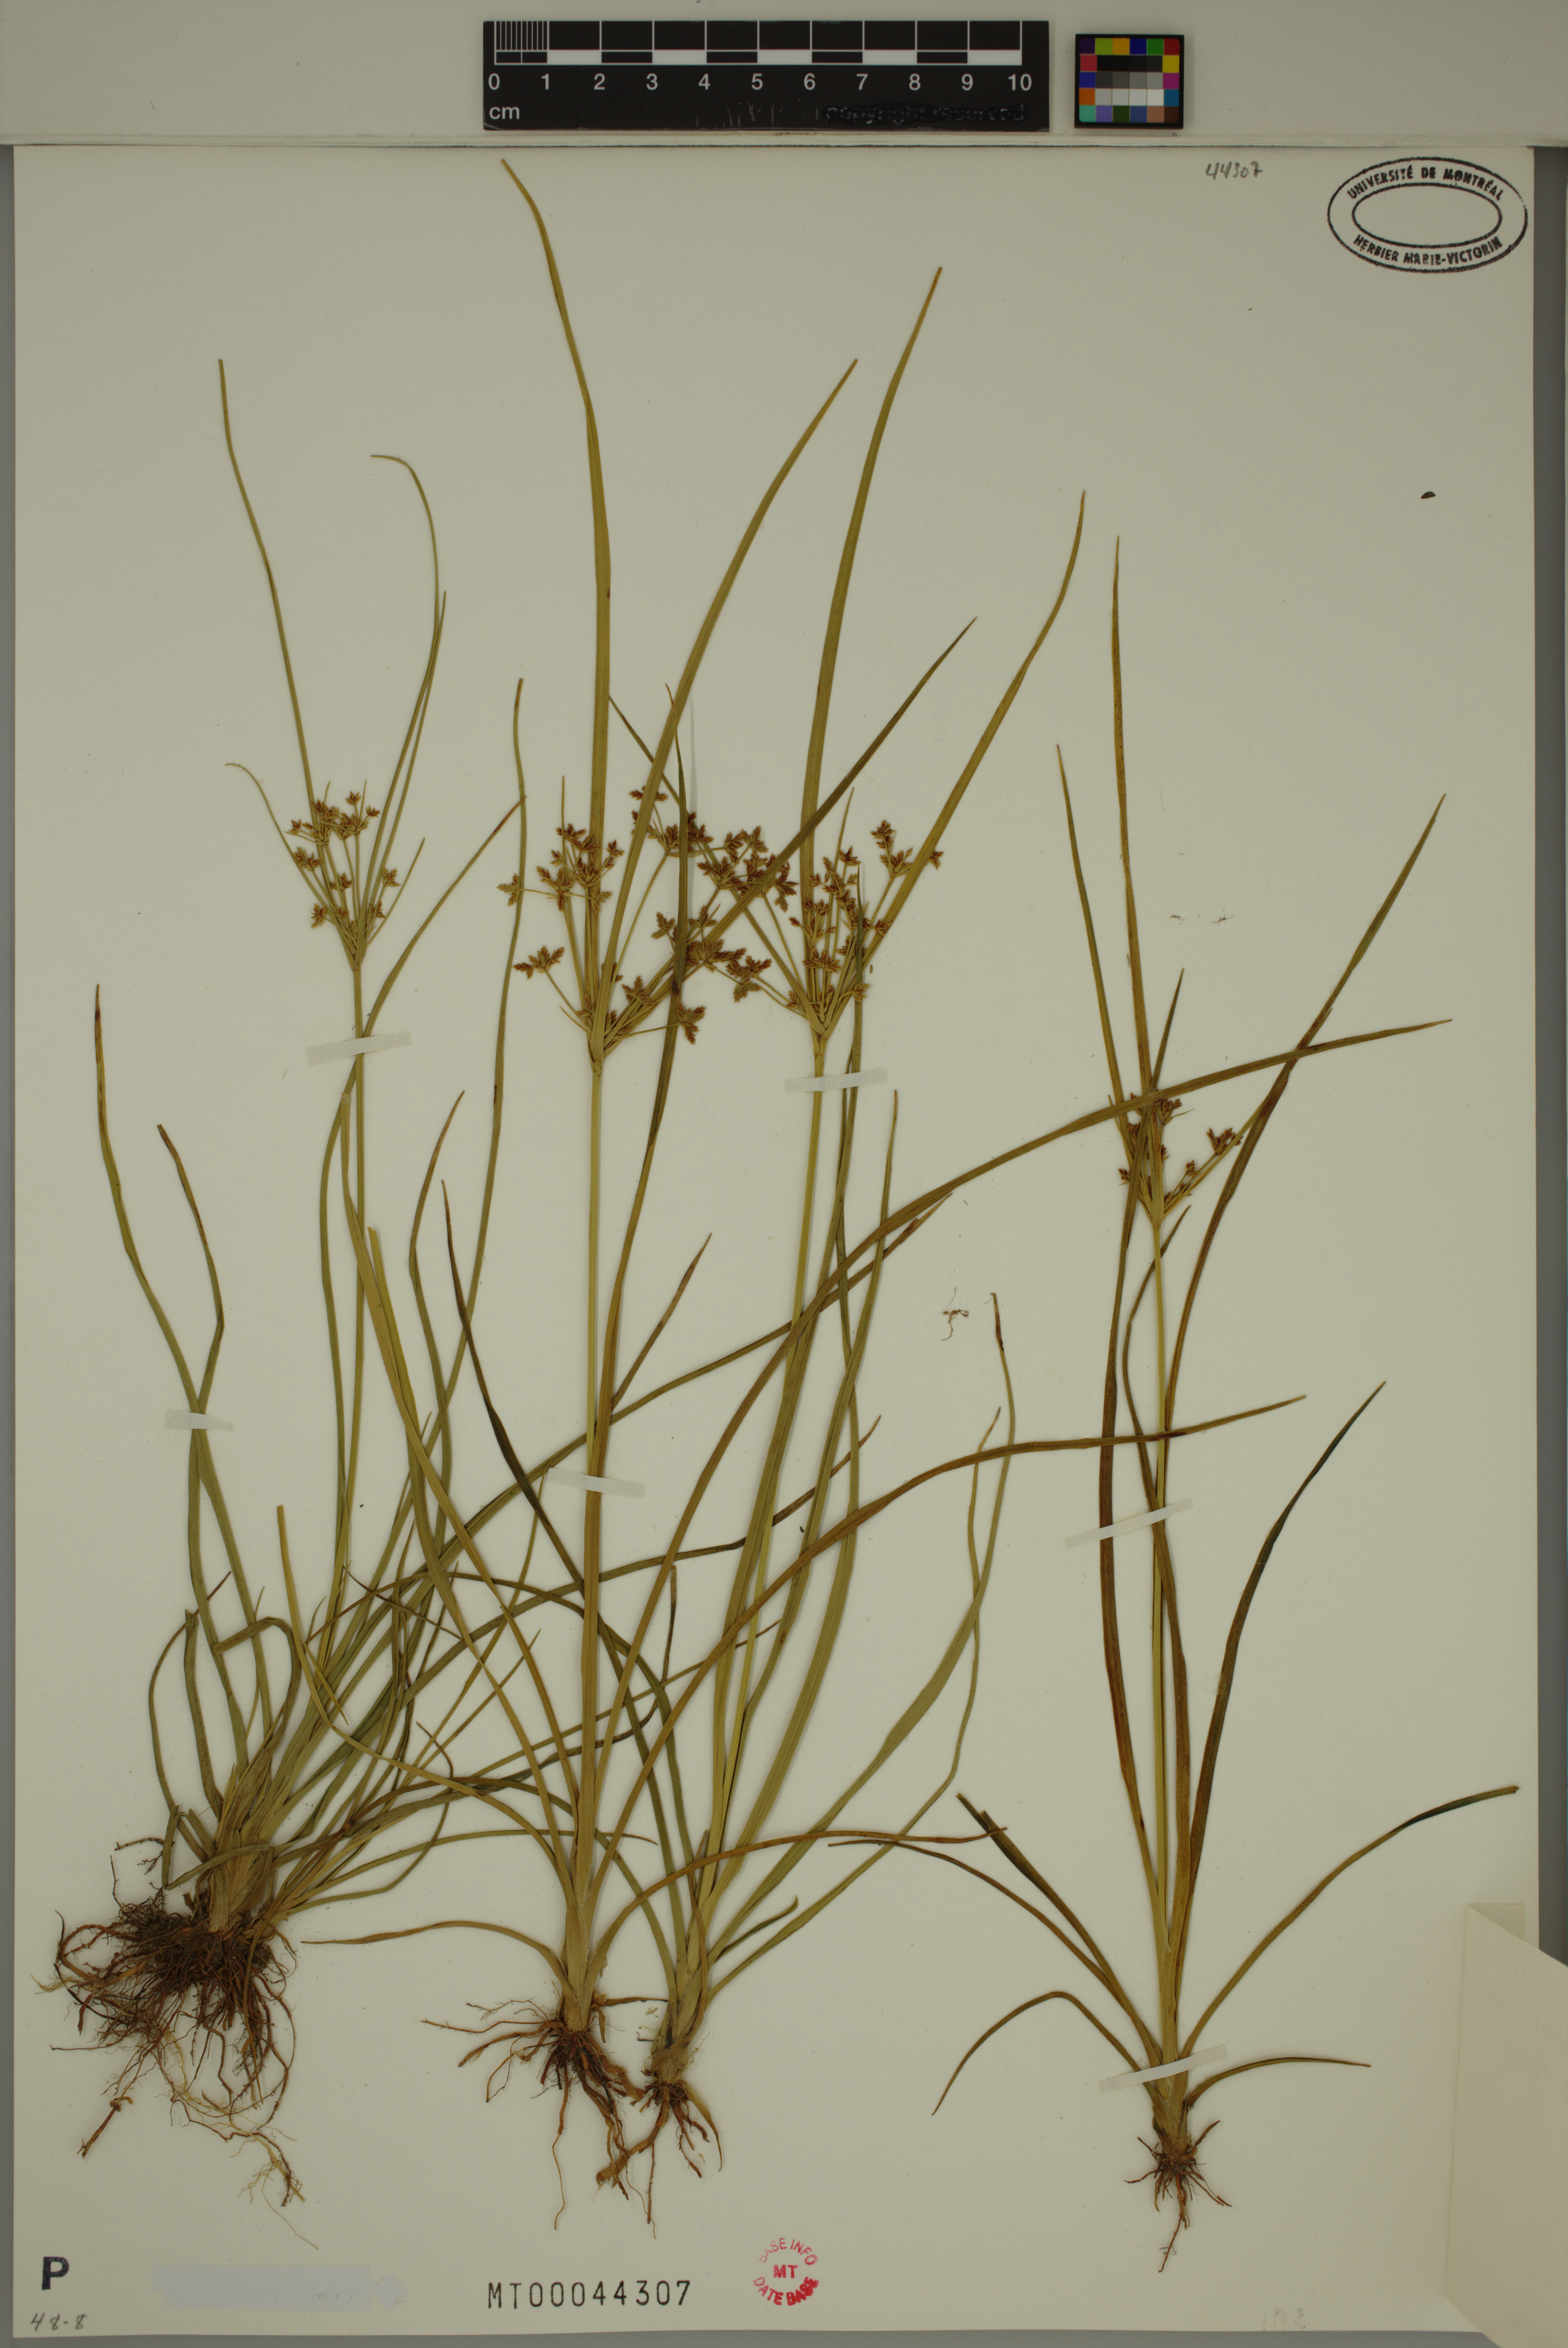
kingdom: Plantae
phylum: Tracheophyta
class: Liliopsida
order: Poales
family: Cyperaceae
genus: Cyperus
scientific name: Cyperus dentatus
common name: Dentate umbrella sedge
